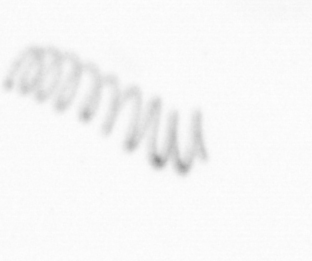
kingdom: Chromista
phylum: Ochrophyta
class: Bacillariophyceae
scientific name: Bacillariophyceae
